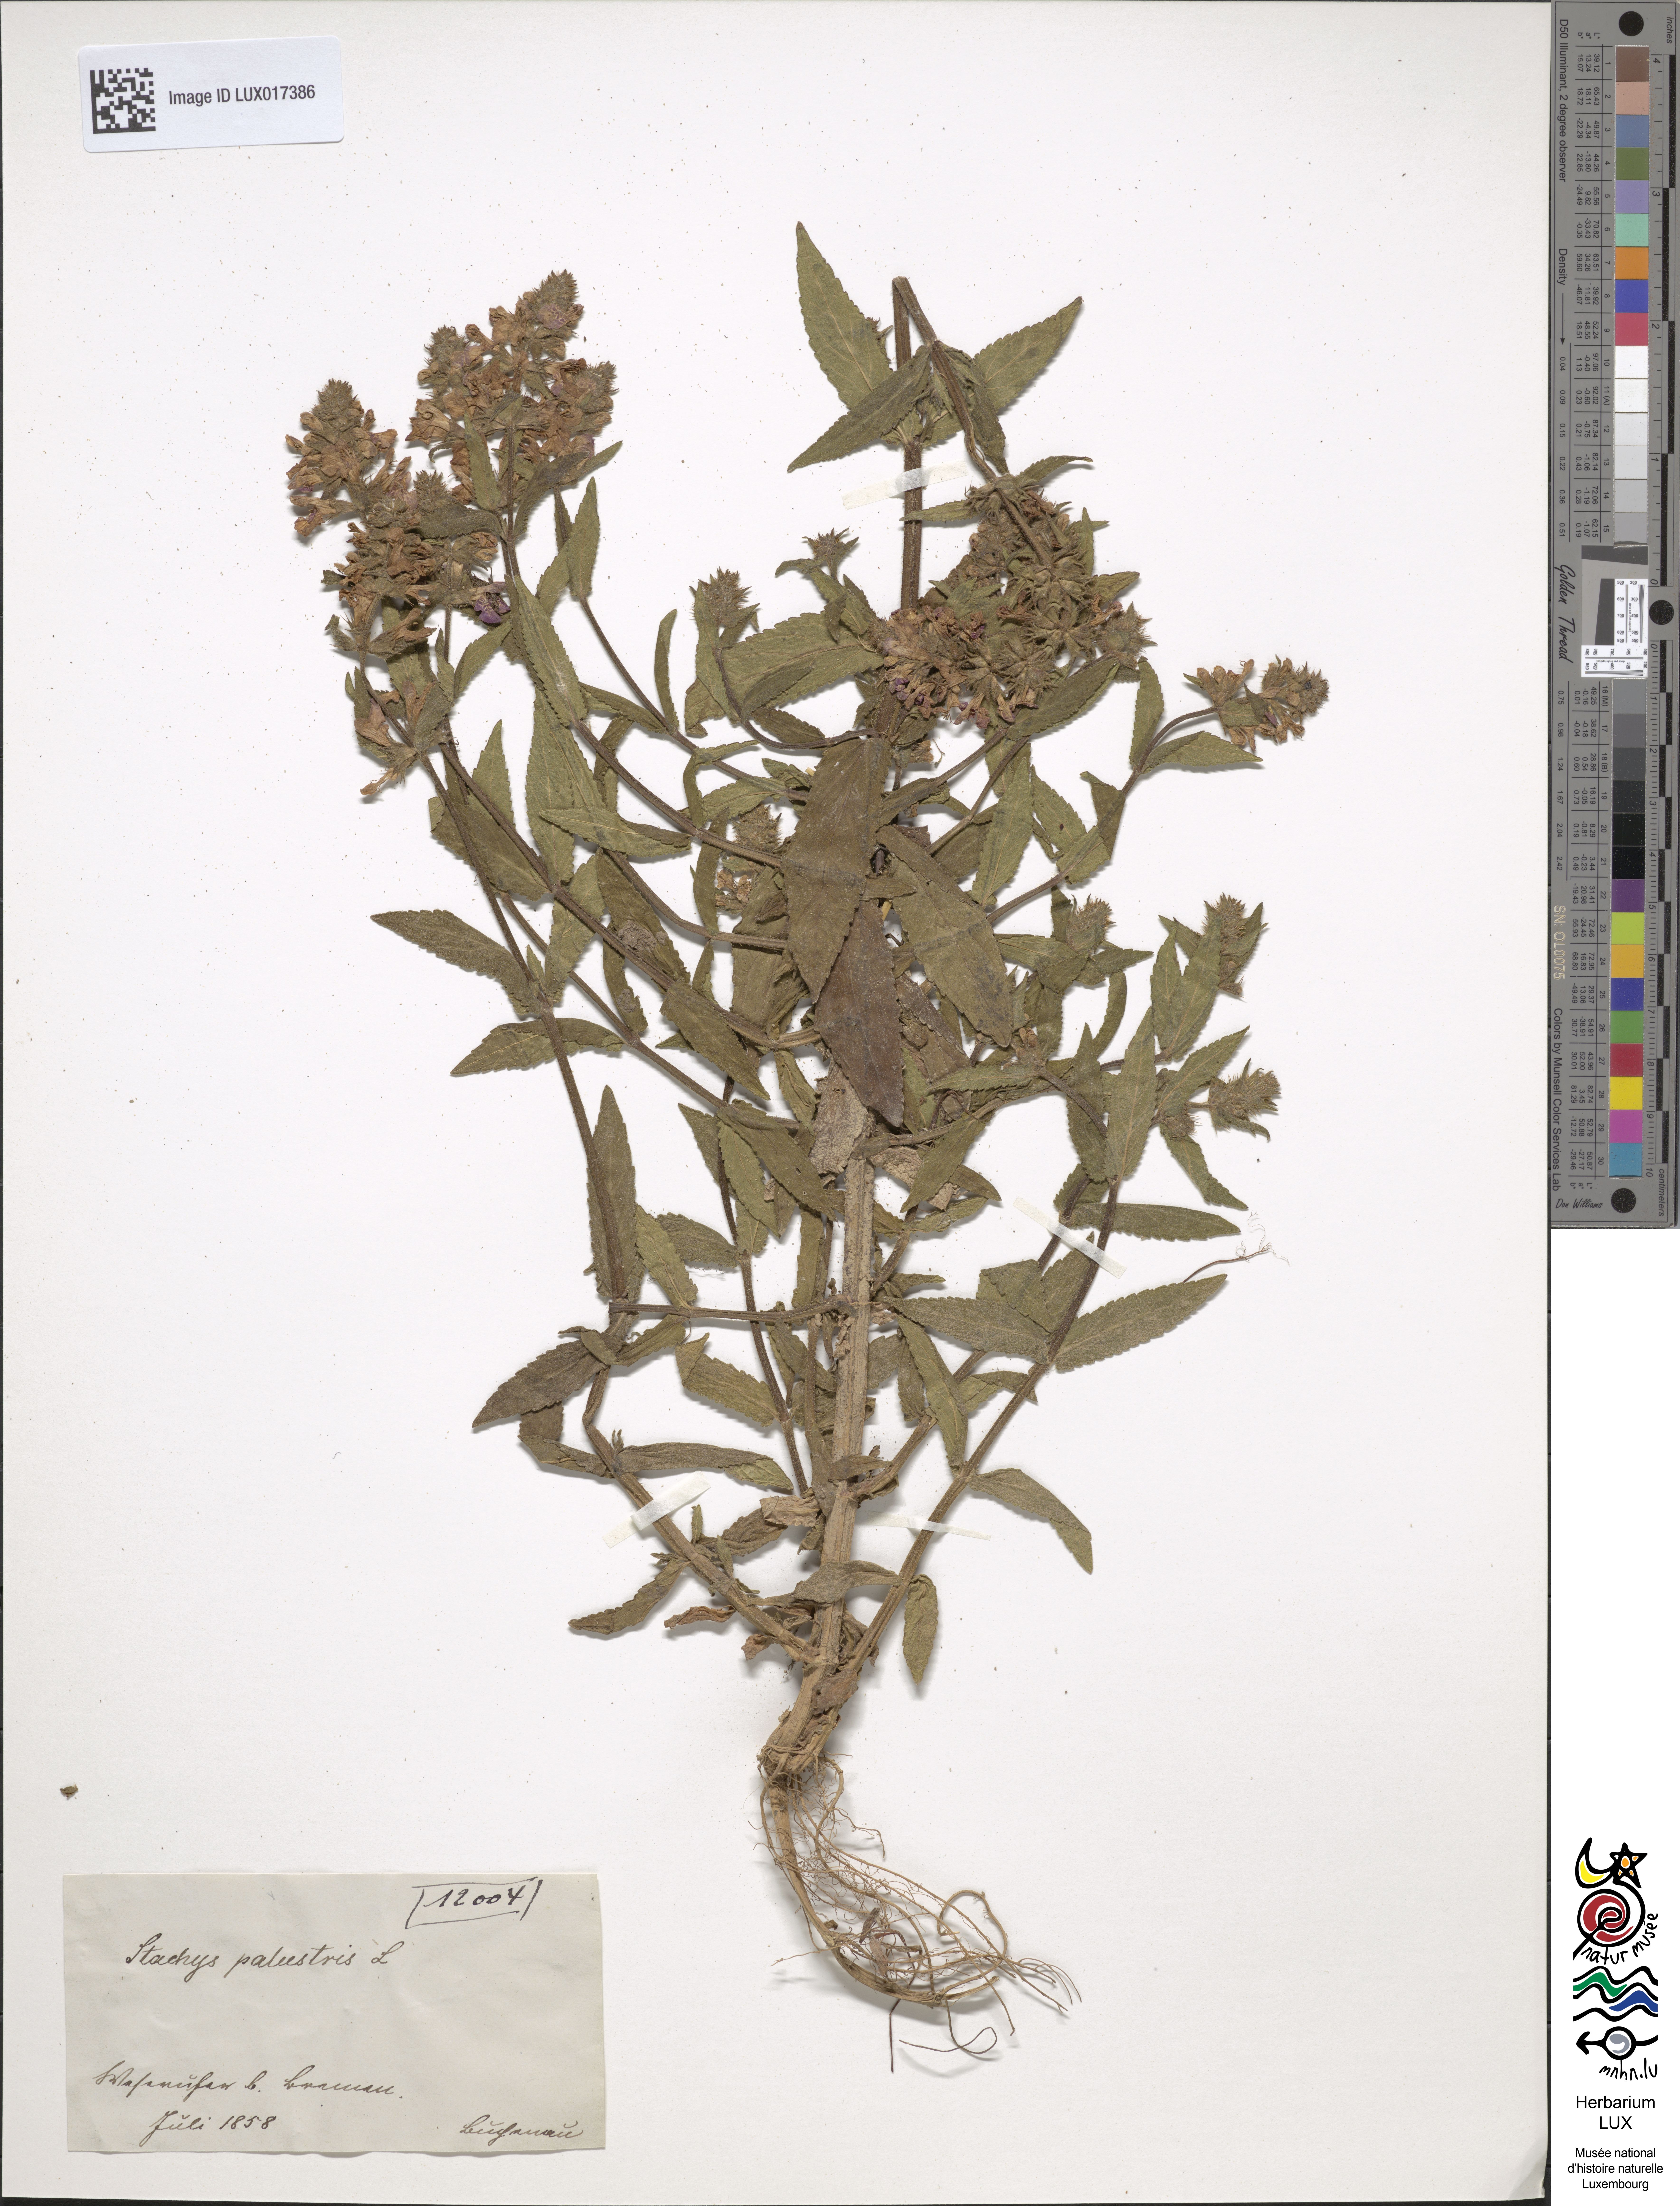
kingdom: Plantae
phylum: Tracheophyta
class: Magnoliopsida
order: Lamiales
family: Lamiaceae
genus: Stachys
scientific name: Stachys palustris
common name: Marsh woundwort
